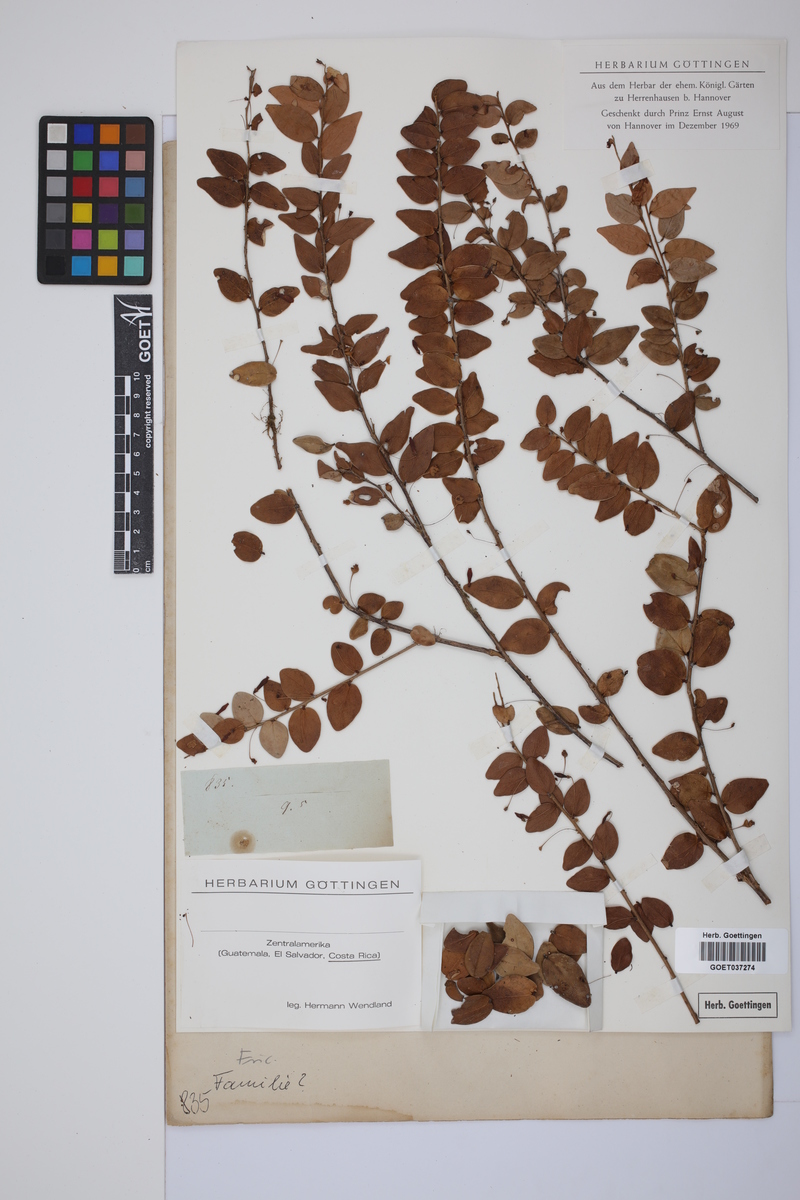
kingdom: Plantae
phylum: Tracheophyta
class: Magnoliopsida
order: Ericales
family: Ericaceae
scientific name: Ericaceae
